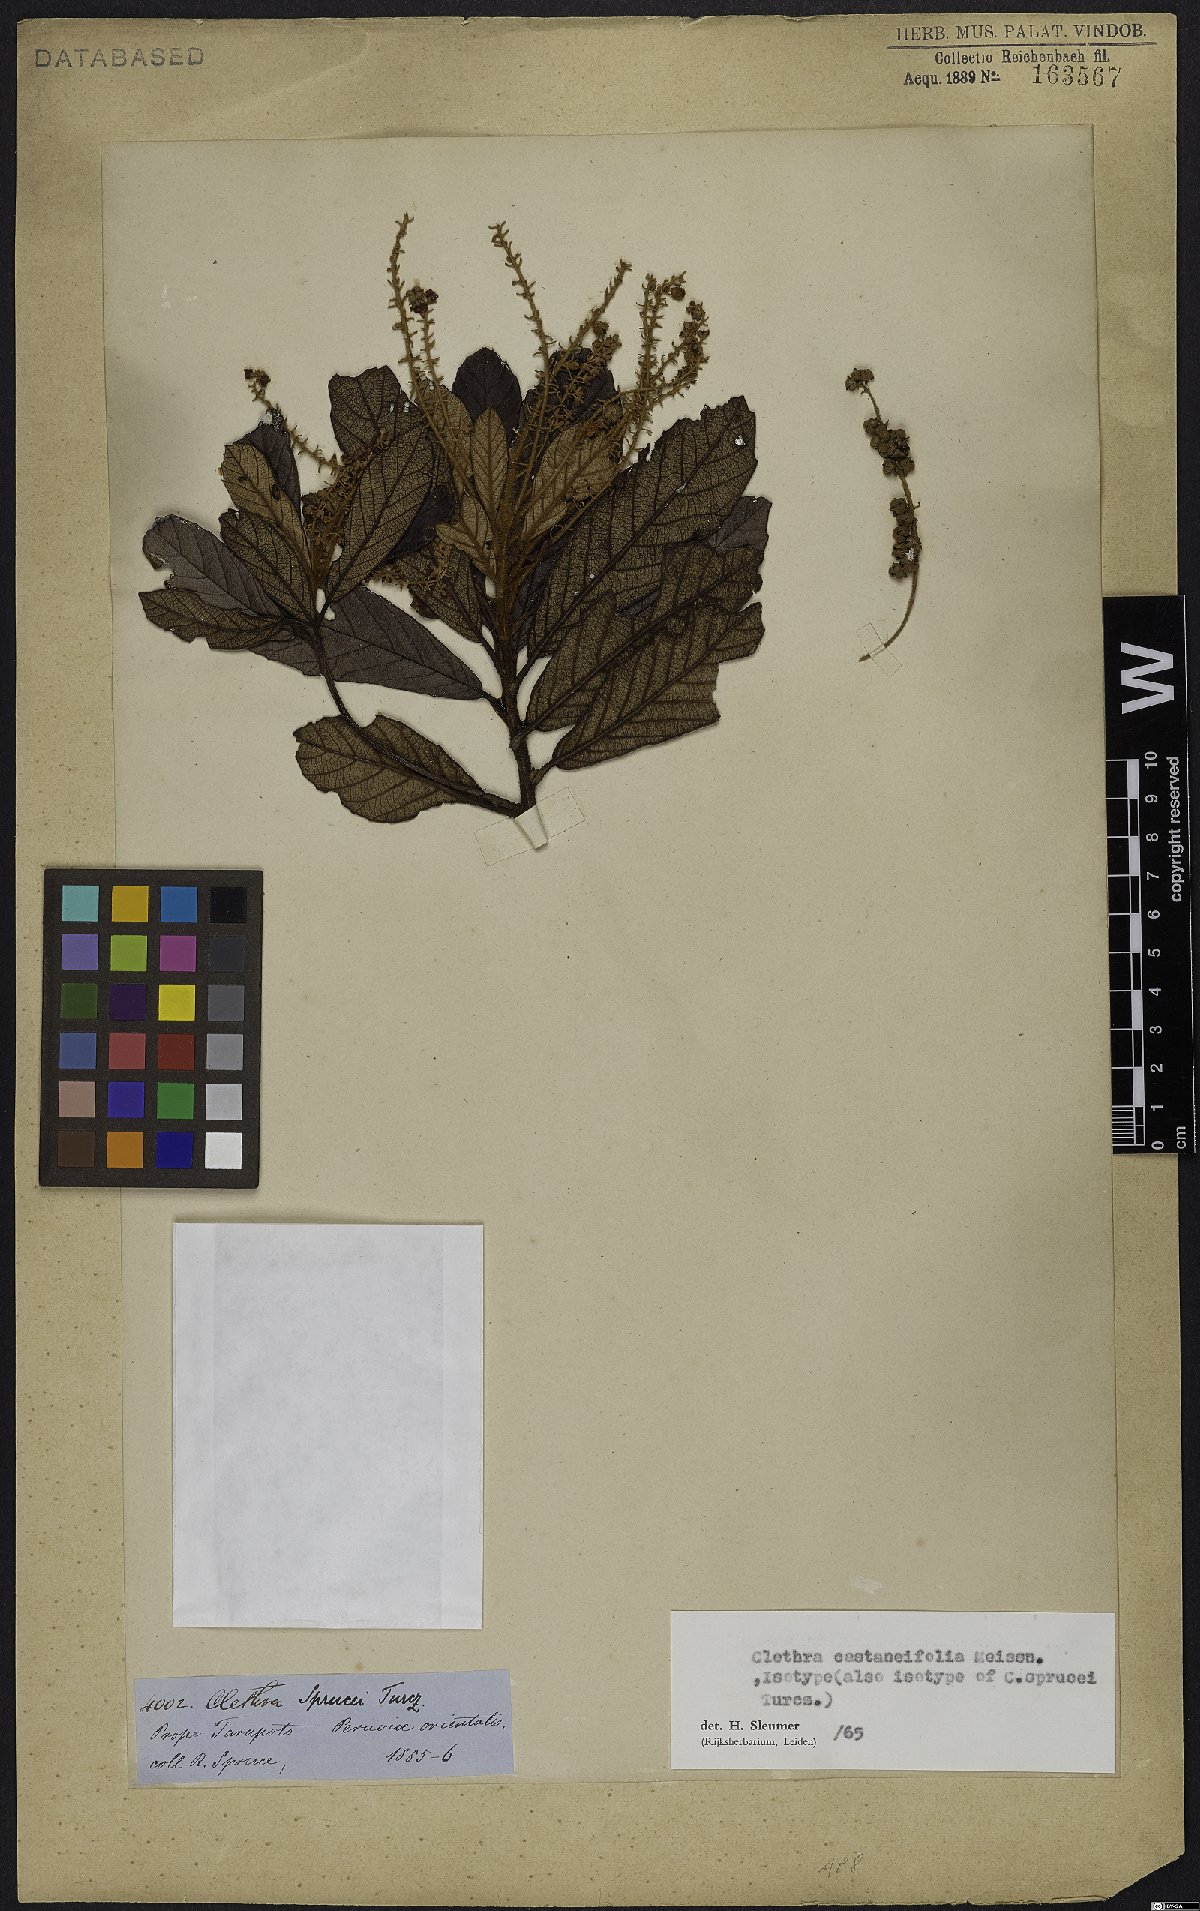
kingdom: Plantae
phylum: Tracheophyta
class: Magnoliopsida
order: Ericales
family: Clethraceae
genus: Clethra
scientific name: Clethra castaneifolia
